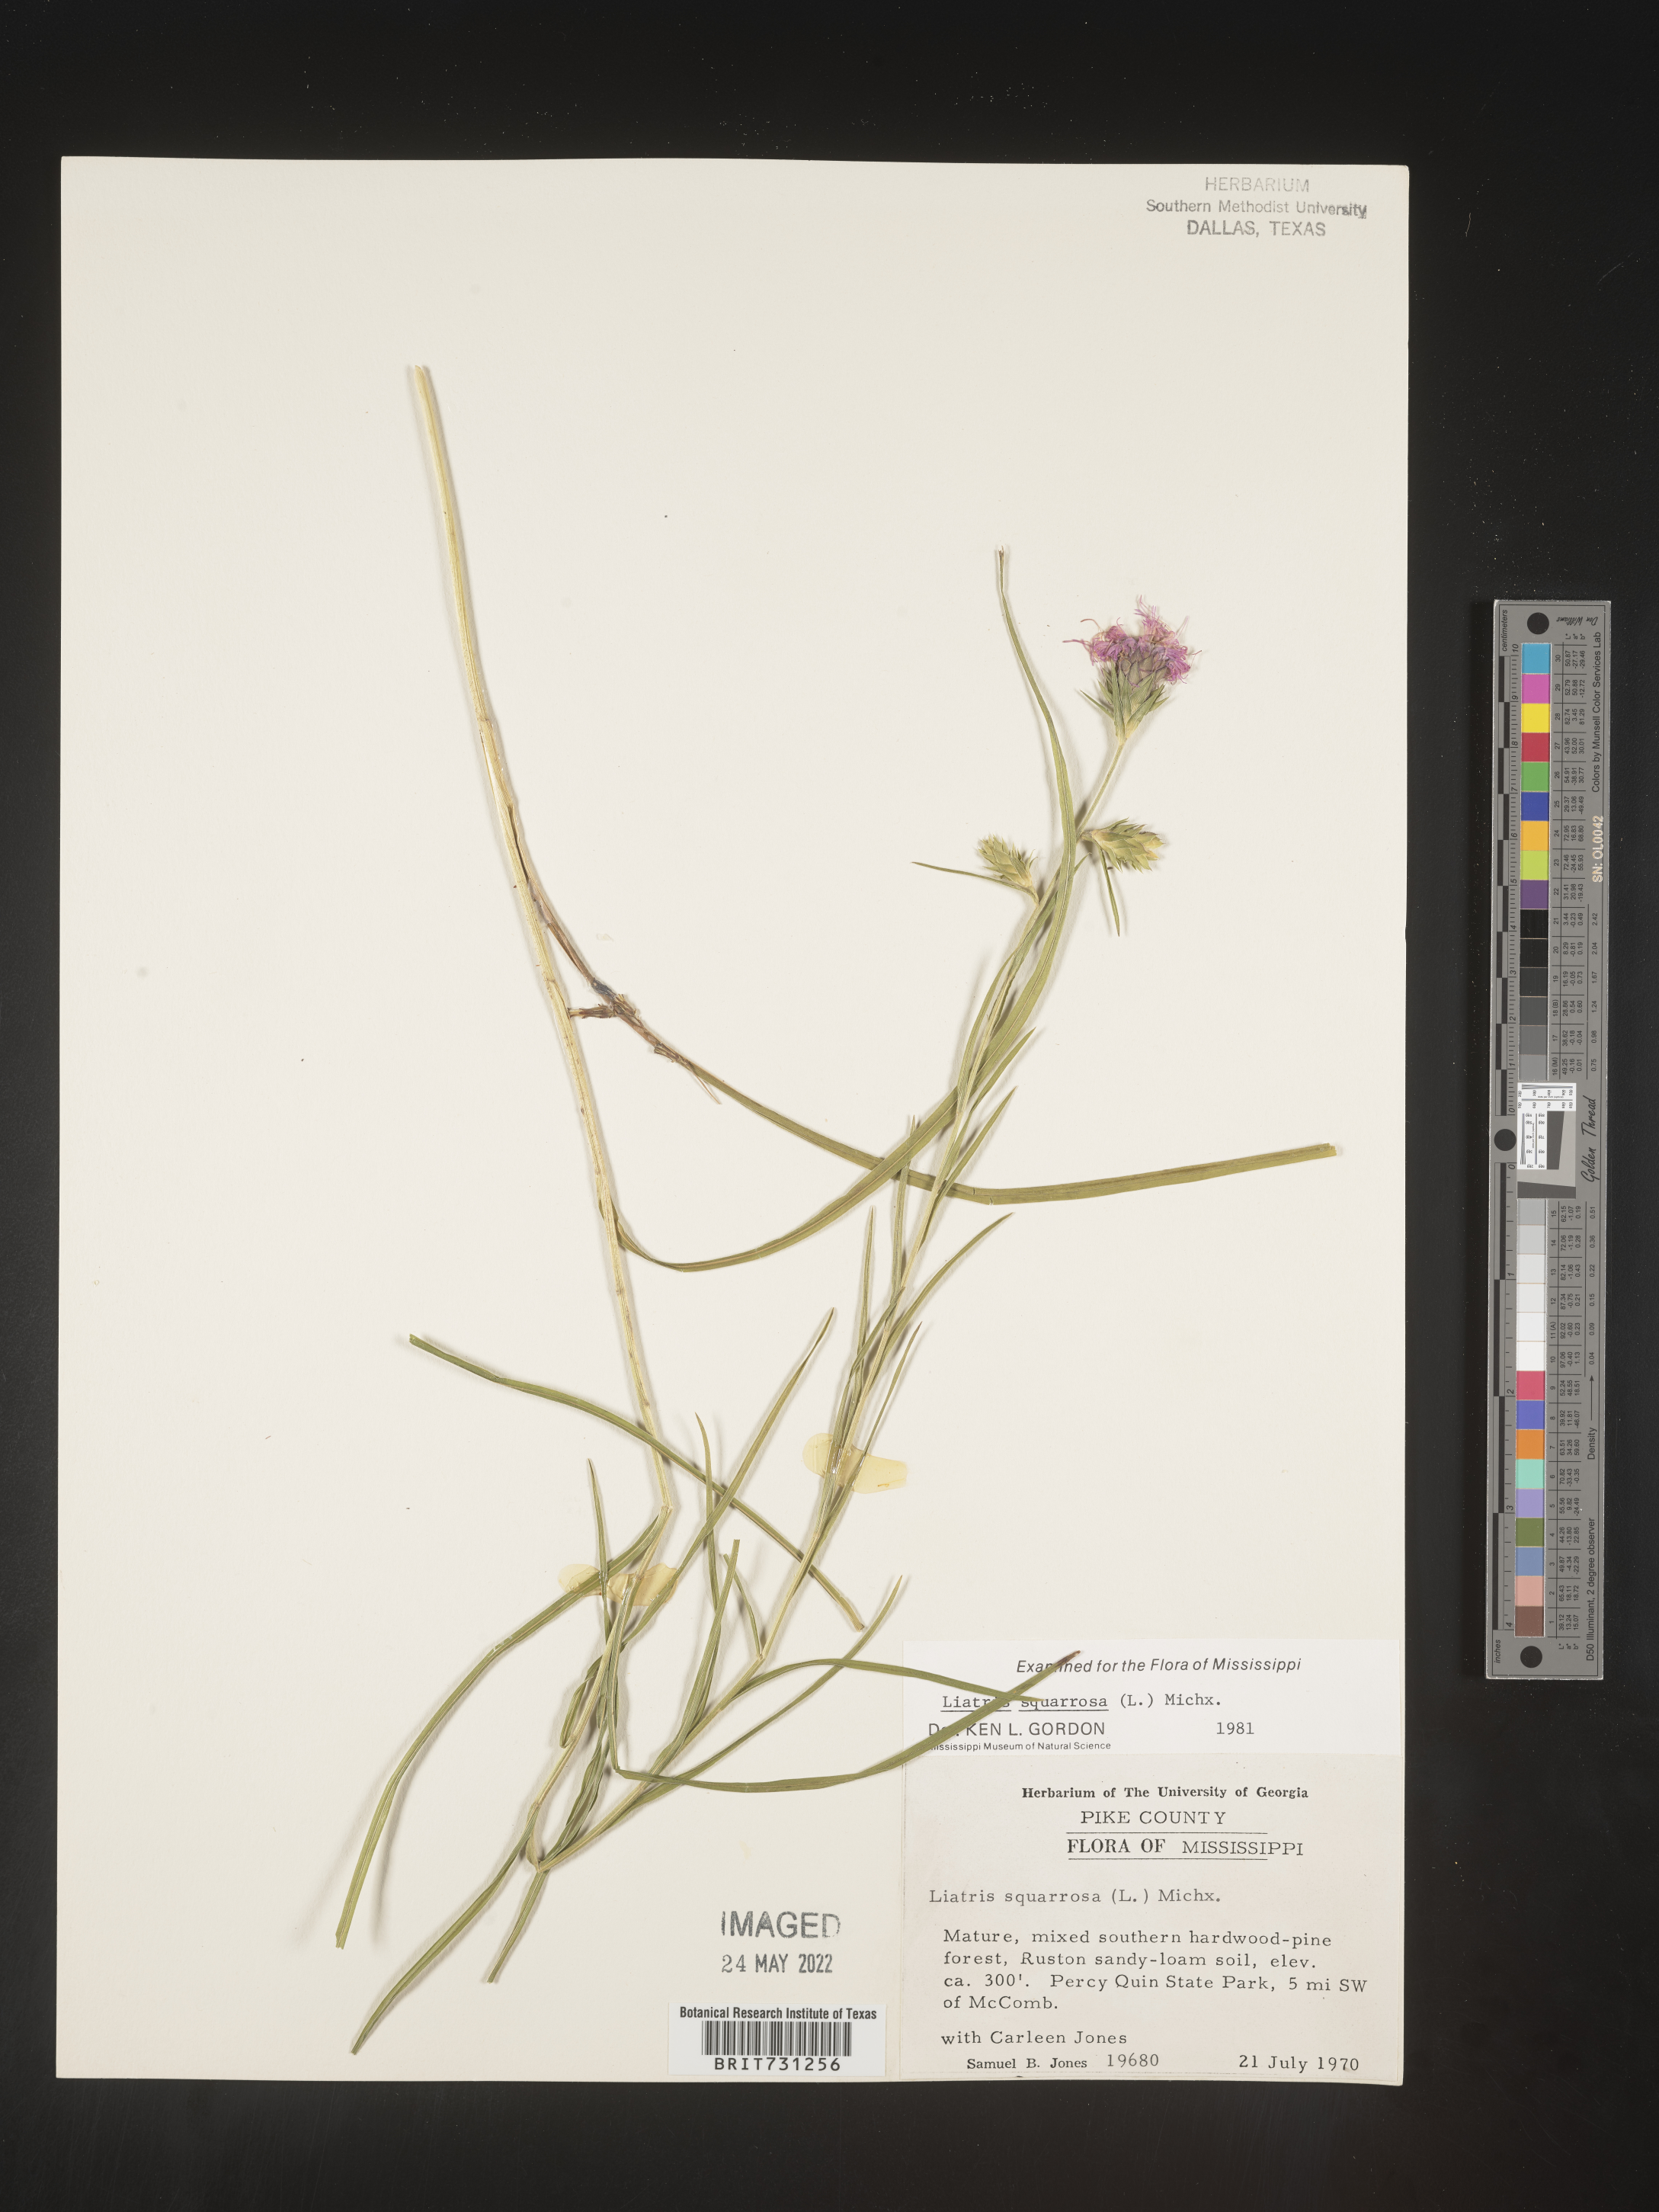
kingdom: Plantae
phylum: Tracheophyta
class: Magnoliopsida
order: Asterales
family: Asteraceae
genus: Liatris
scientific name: Liatris squarrosa
